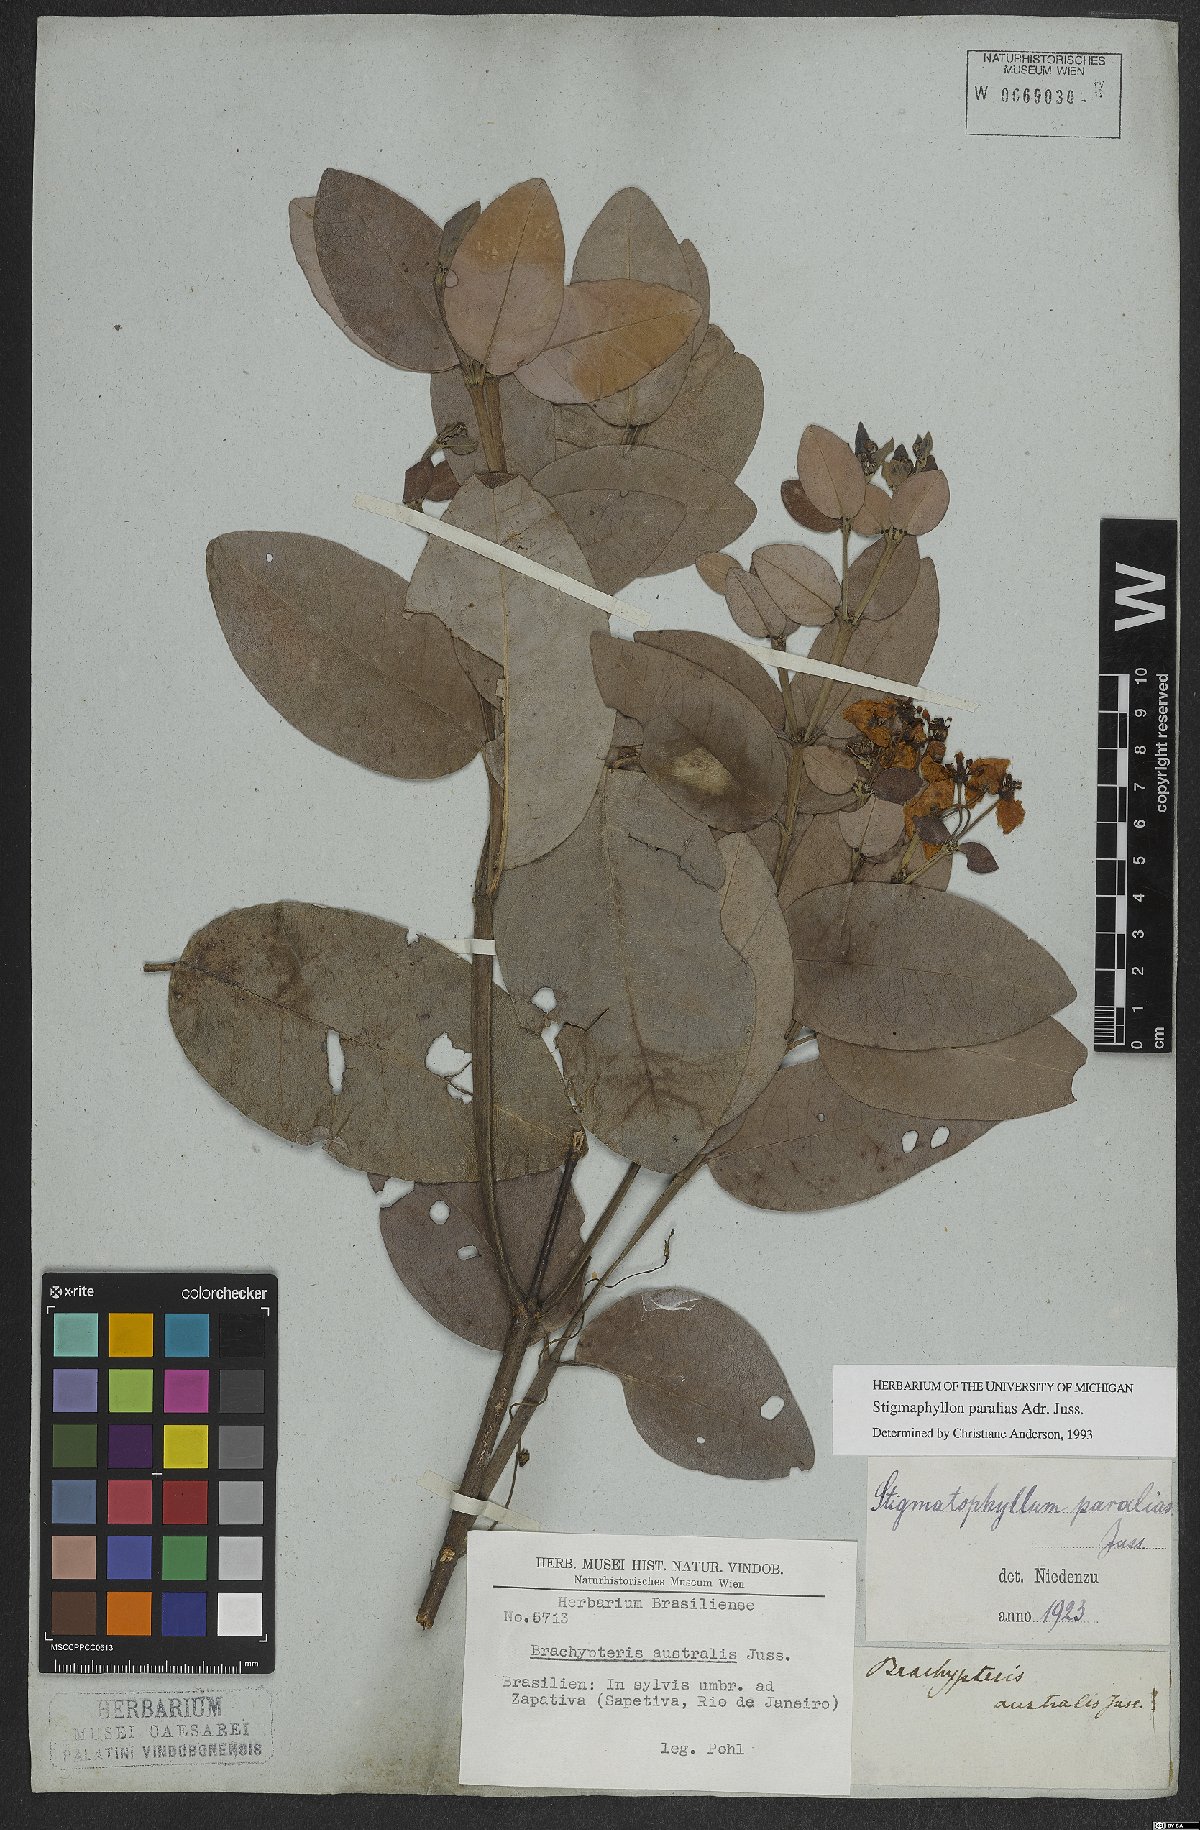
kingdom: Plantae
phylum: Tracheophyta
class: Magnoliopsida
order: Malpighiales
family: Malpighiaceae
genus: Stigmaphyllon
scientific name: Stigmaphyllon paralias
